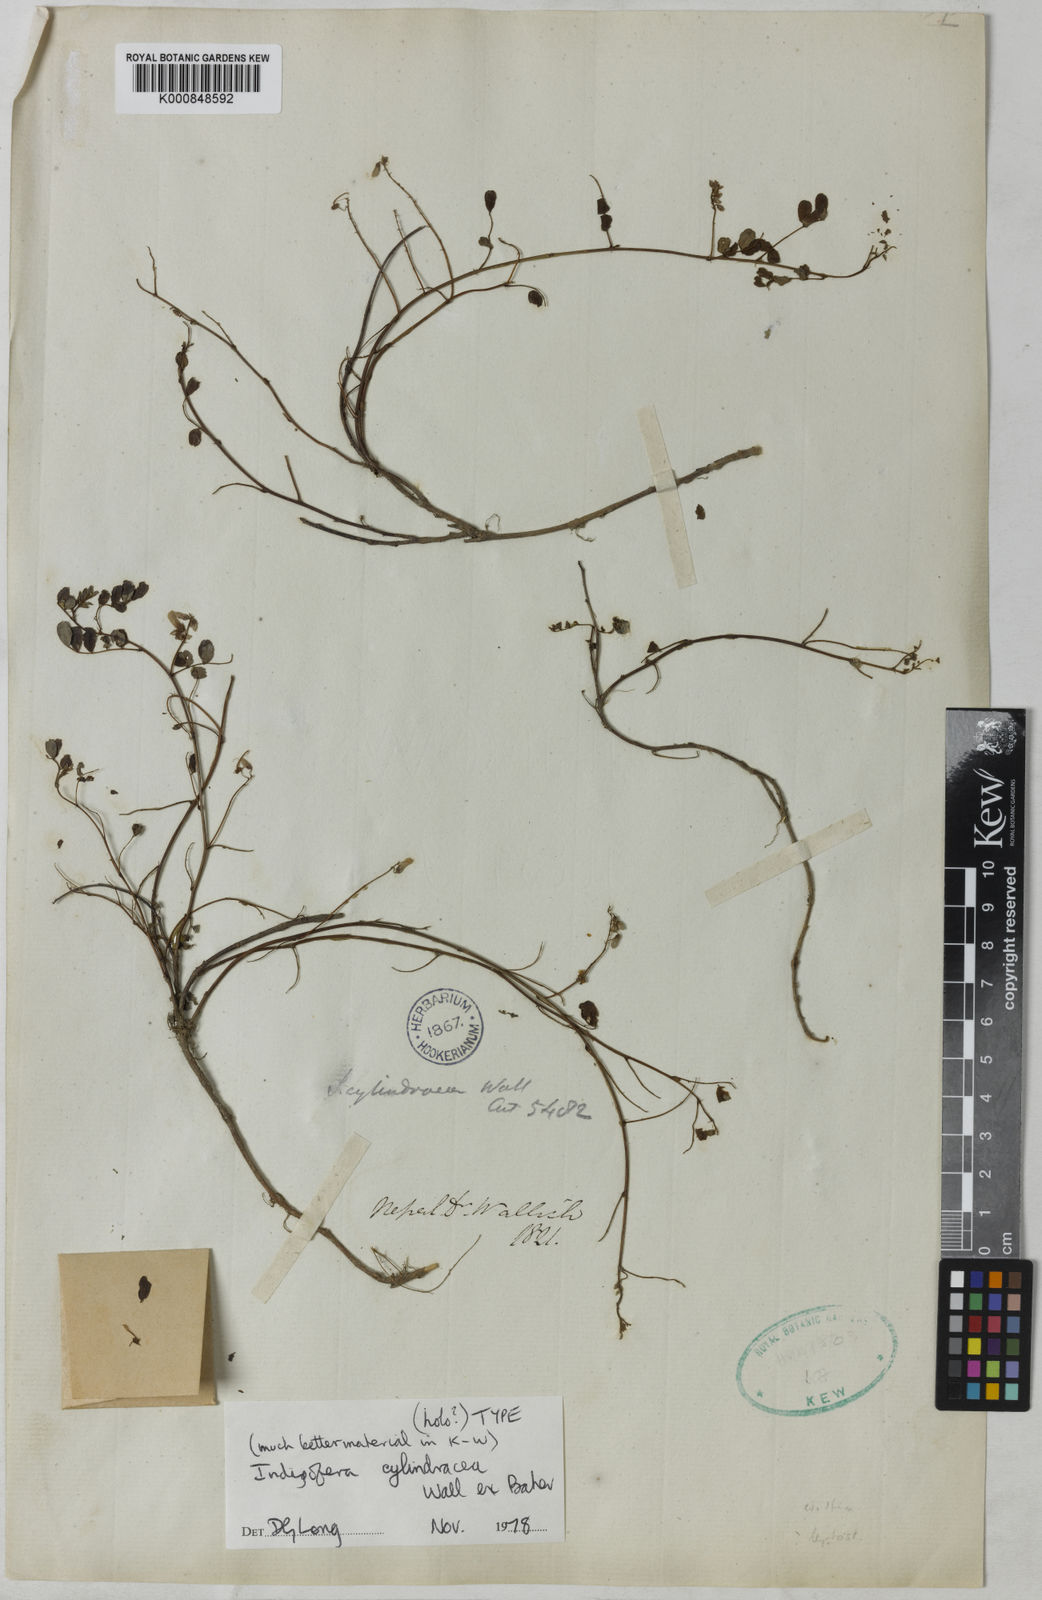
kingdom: Plantae
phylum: Tracheophyta
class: Magnoliopsida
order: Fabales
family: Fabaceae
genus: Indigofera
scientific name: Indigofera cylindracea
